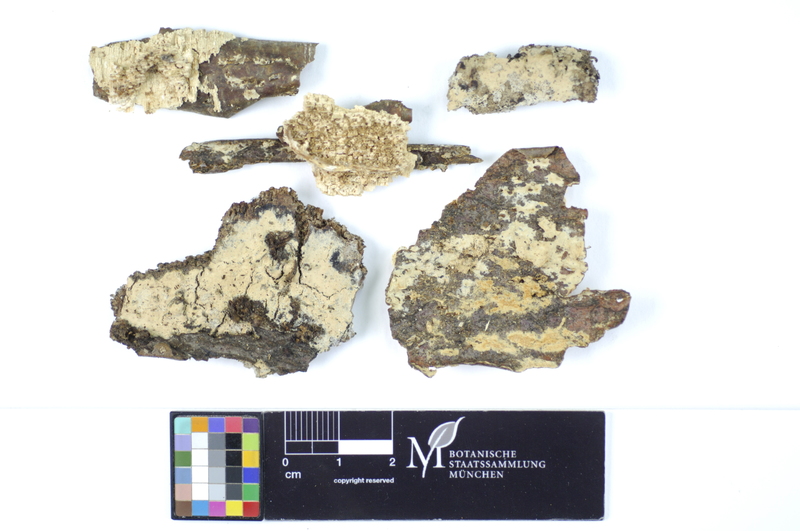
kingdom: Fungi
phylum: Basidiomycota
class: Agaricomycetes
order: Hymenochaetales
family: Rickenellaceae
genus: Peniophorella
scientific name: Peniophorella pubera
